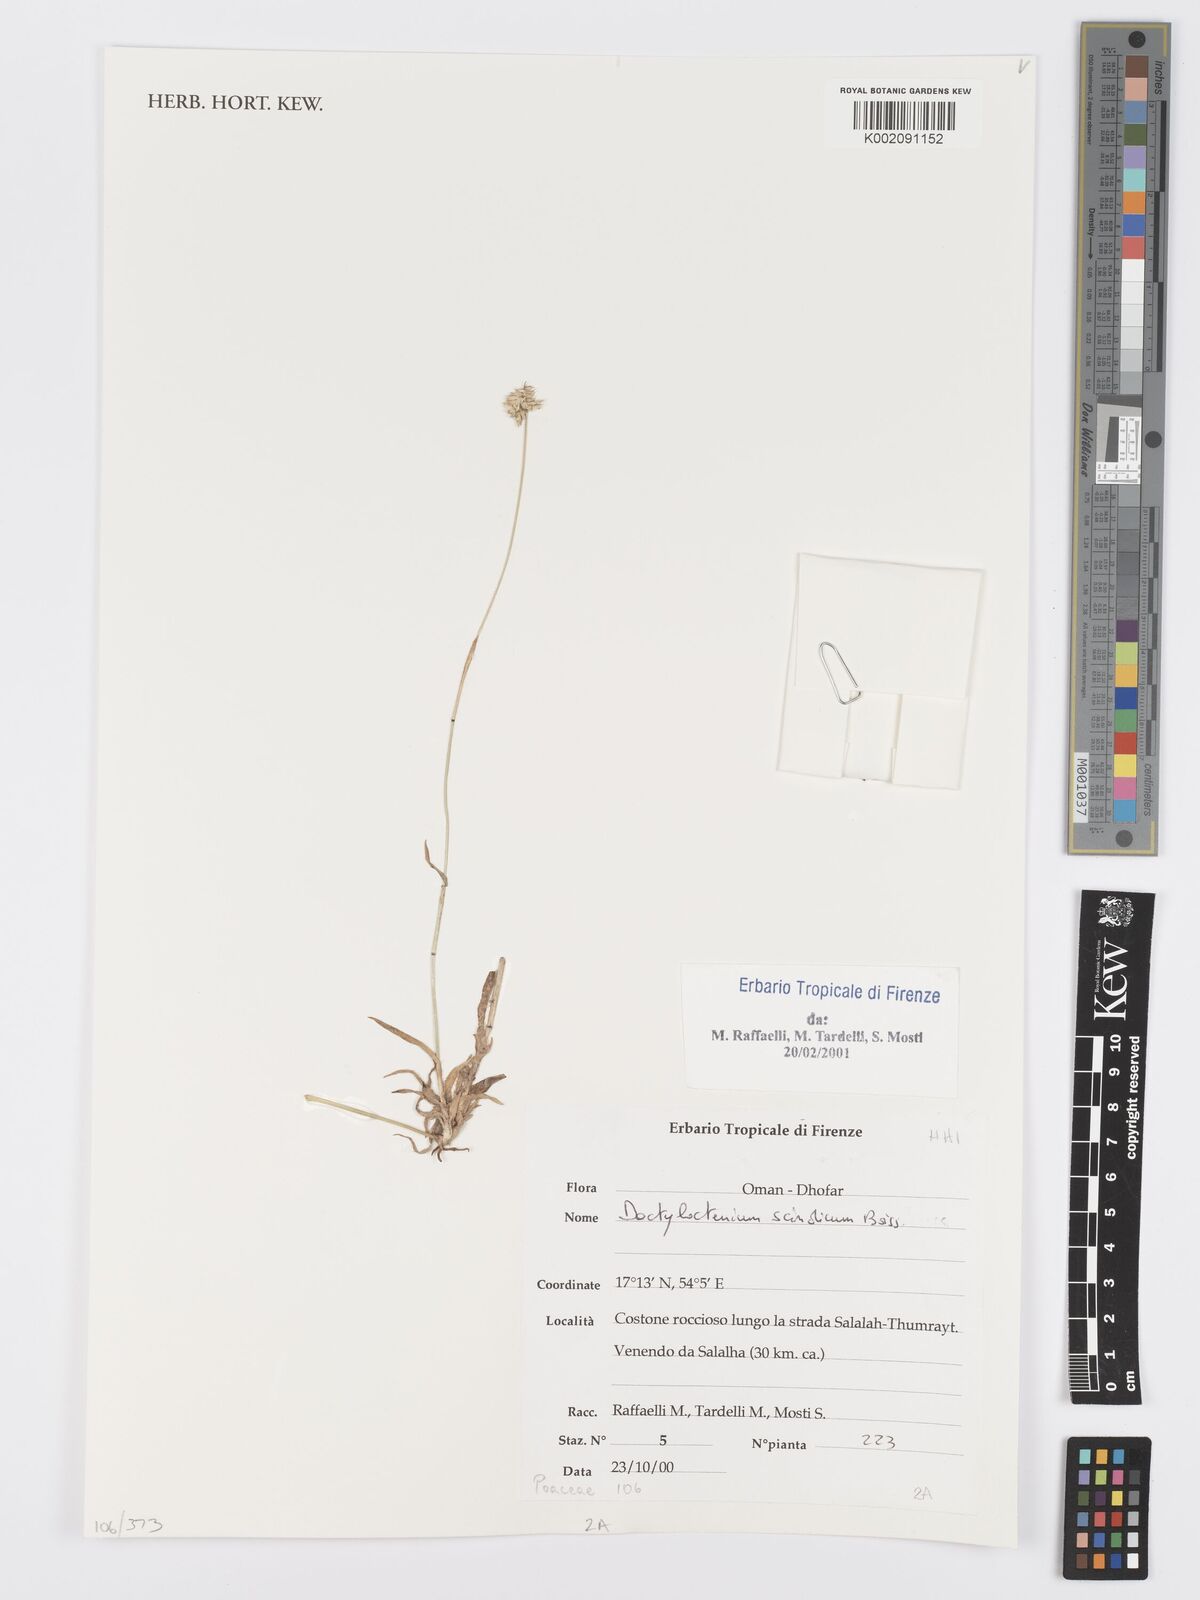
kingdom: Plantae
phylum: Tracheophyta
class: Liliopsida
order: Poales
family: Poaceae
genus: Dactyloctenium
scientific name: Dactyloctenium scindicum
